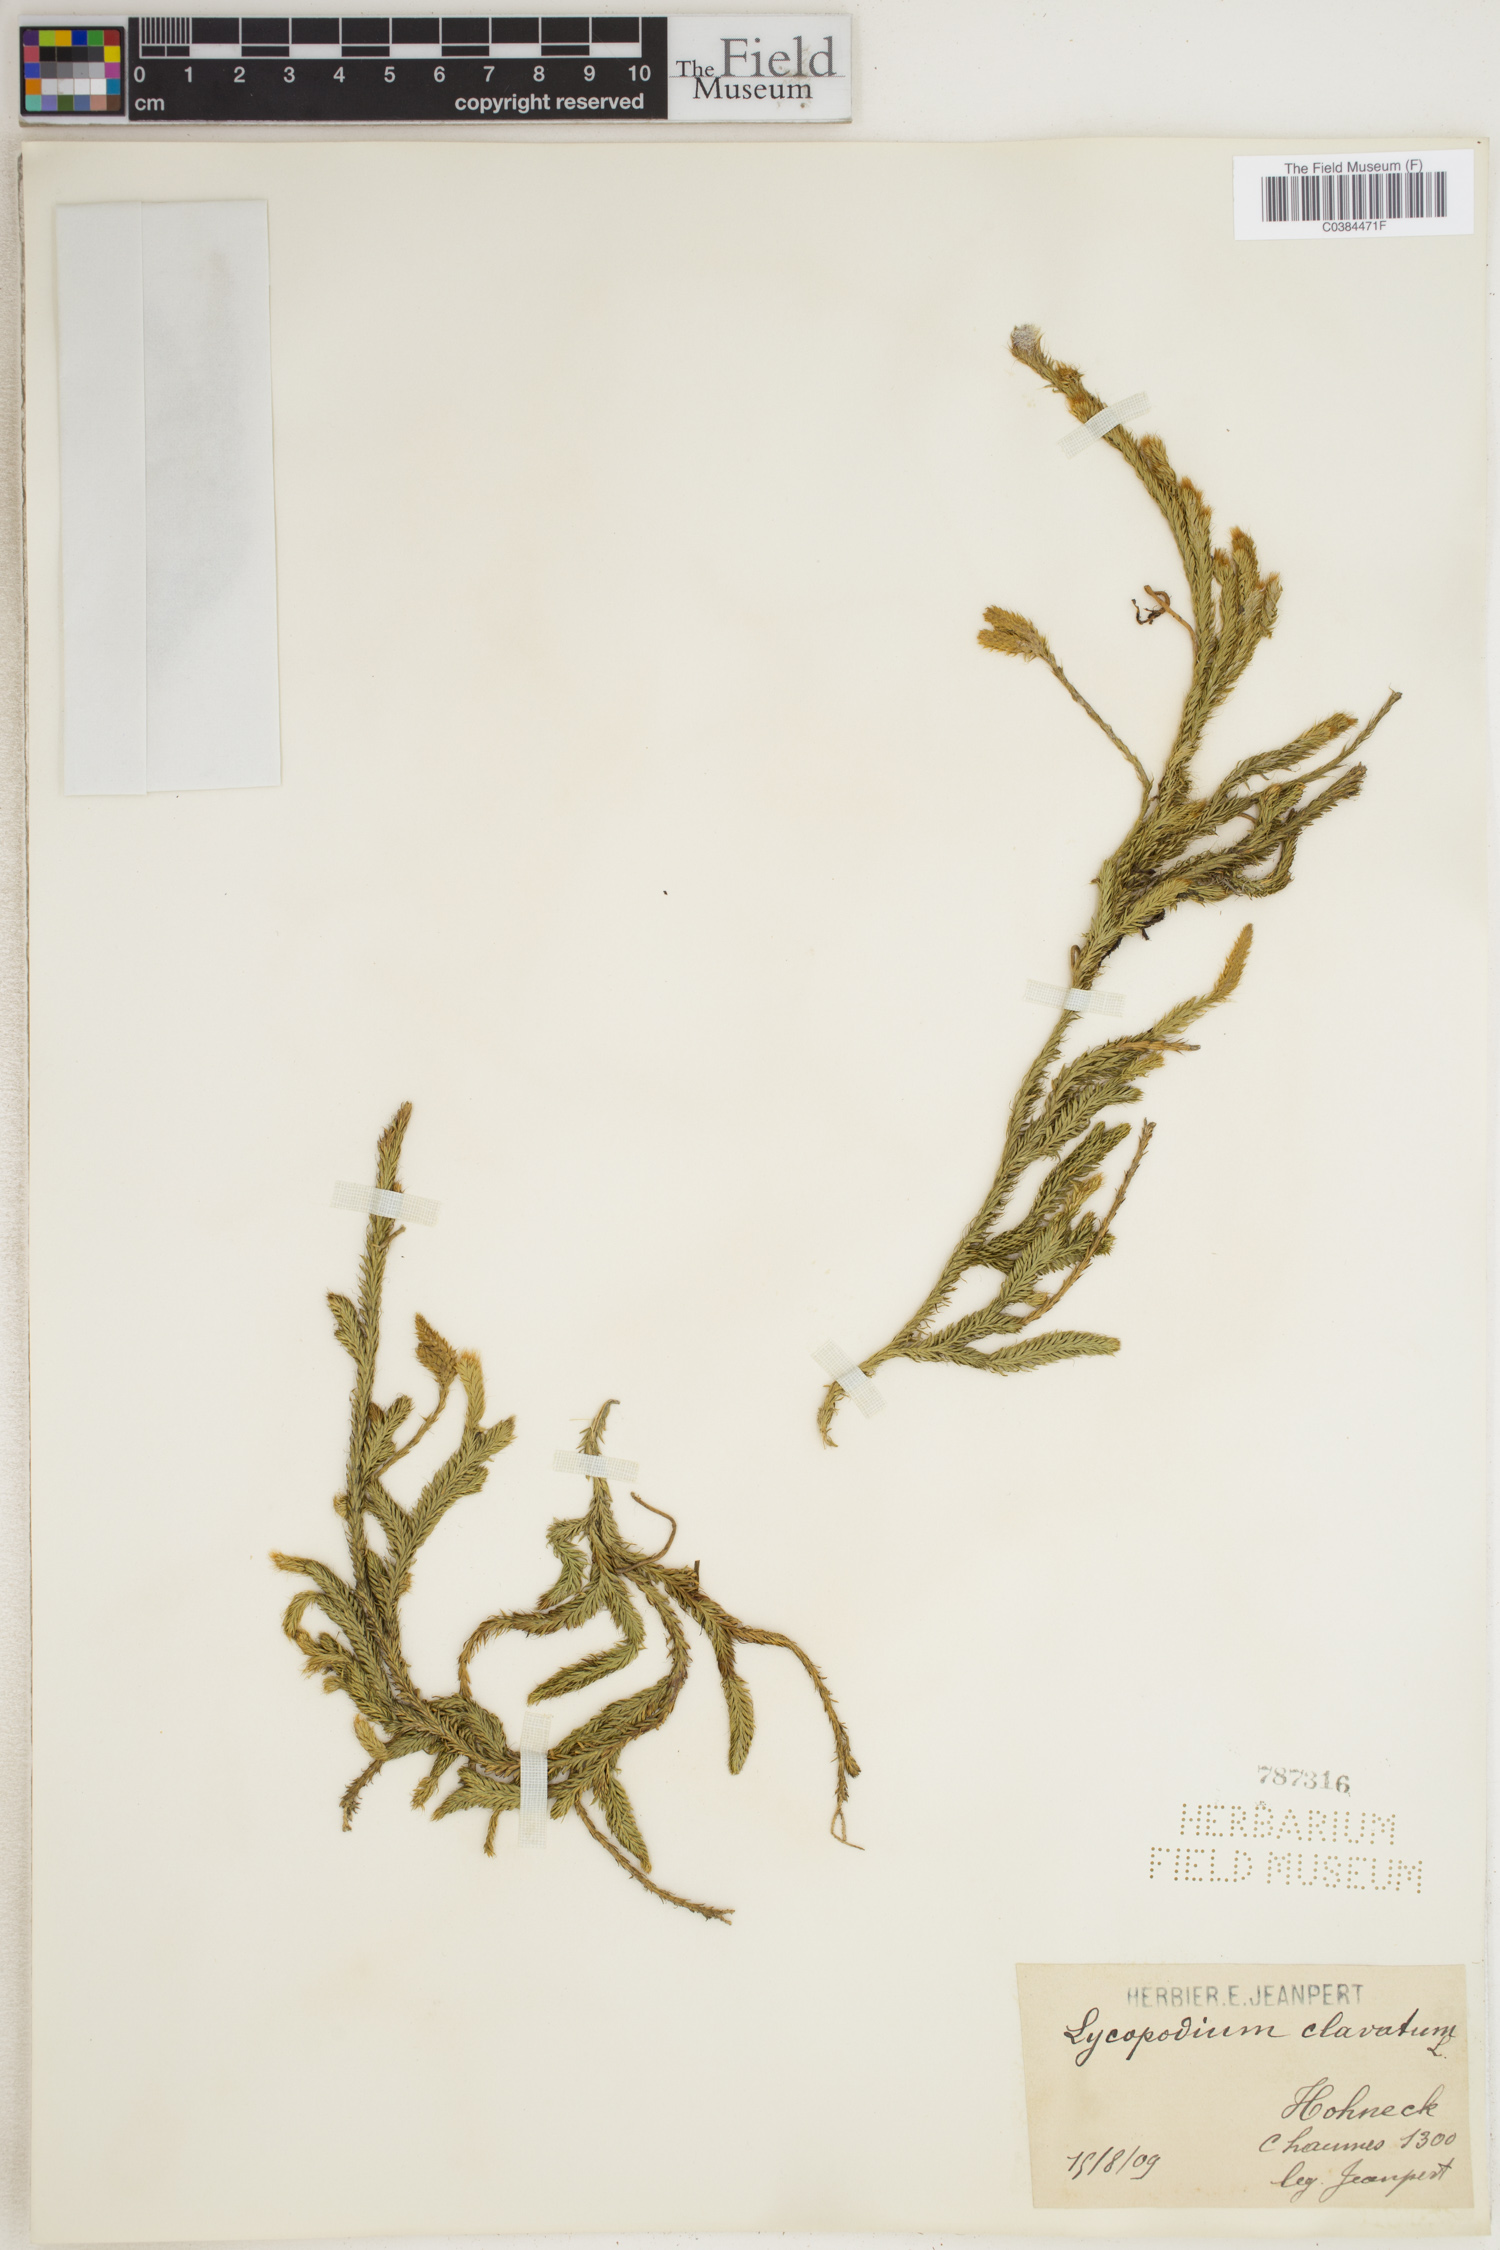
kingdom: Plantae
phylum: Tracheophyta
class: Lycopodiopsida
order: Lycopodiales
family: Lycopodiaceae
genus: Lycopodium
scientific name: Lycopodium clavatum
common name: Stag's-horn clubmoss
